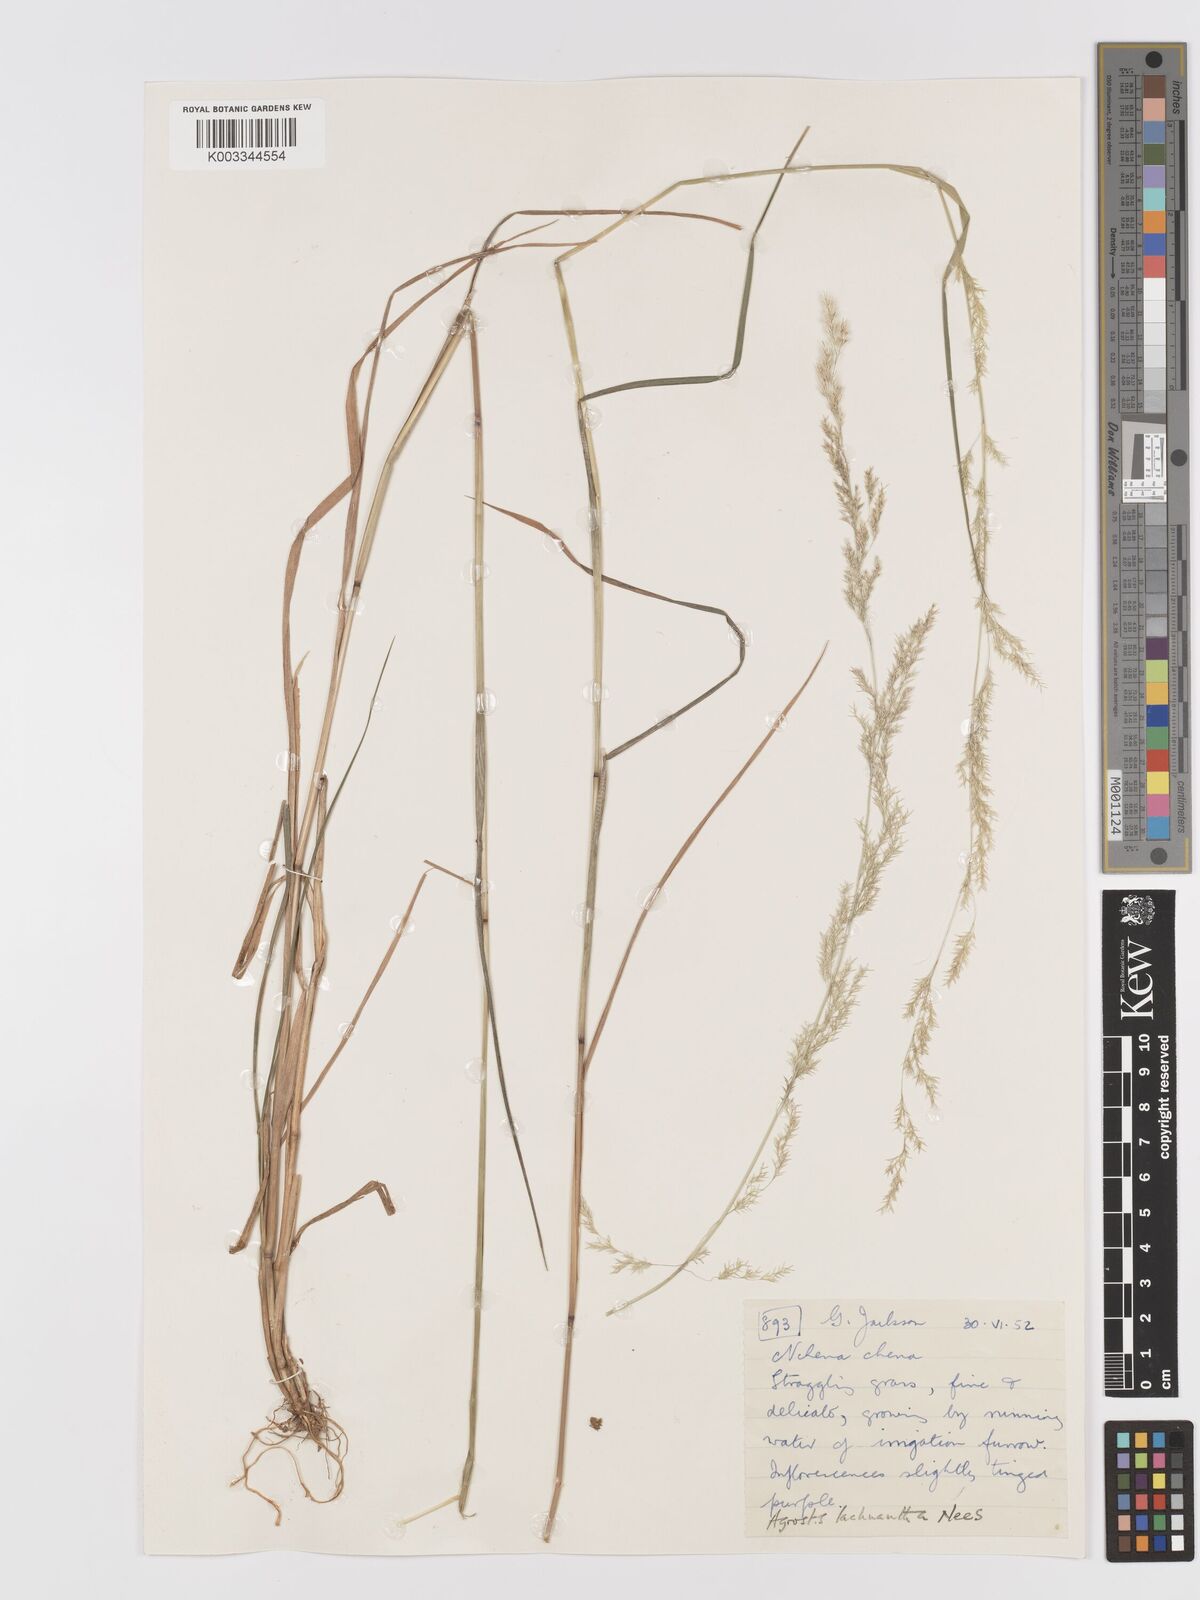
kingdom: Plantae
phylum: Tracheophyta
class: Liliopsida
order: Poales
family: Poaceae
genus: Lachnagrostis
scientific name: Lachnagrostis lachnantha
